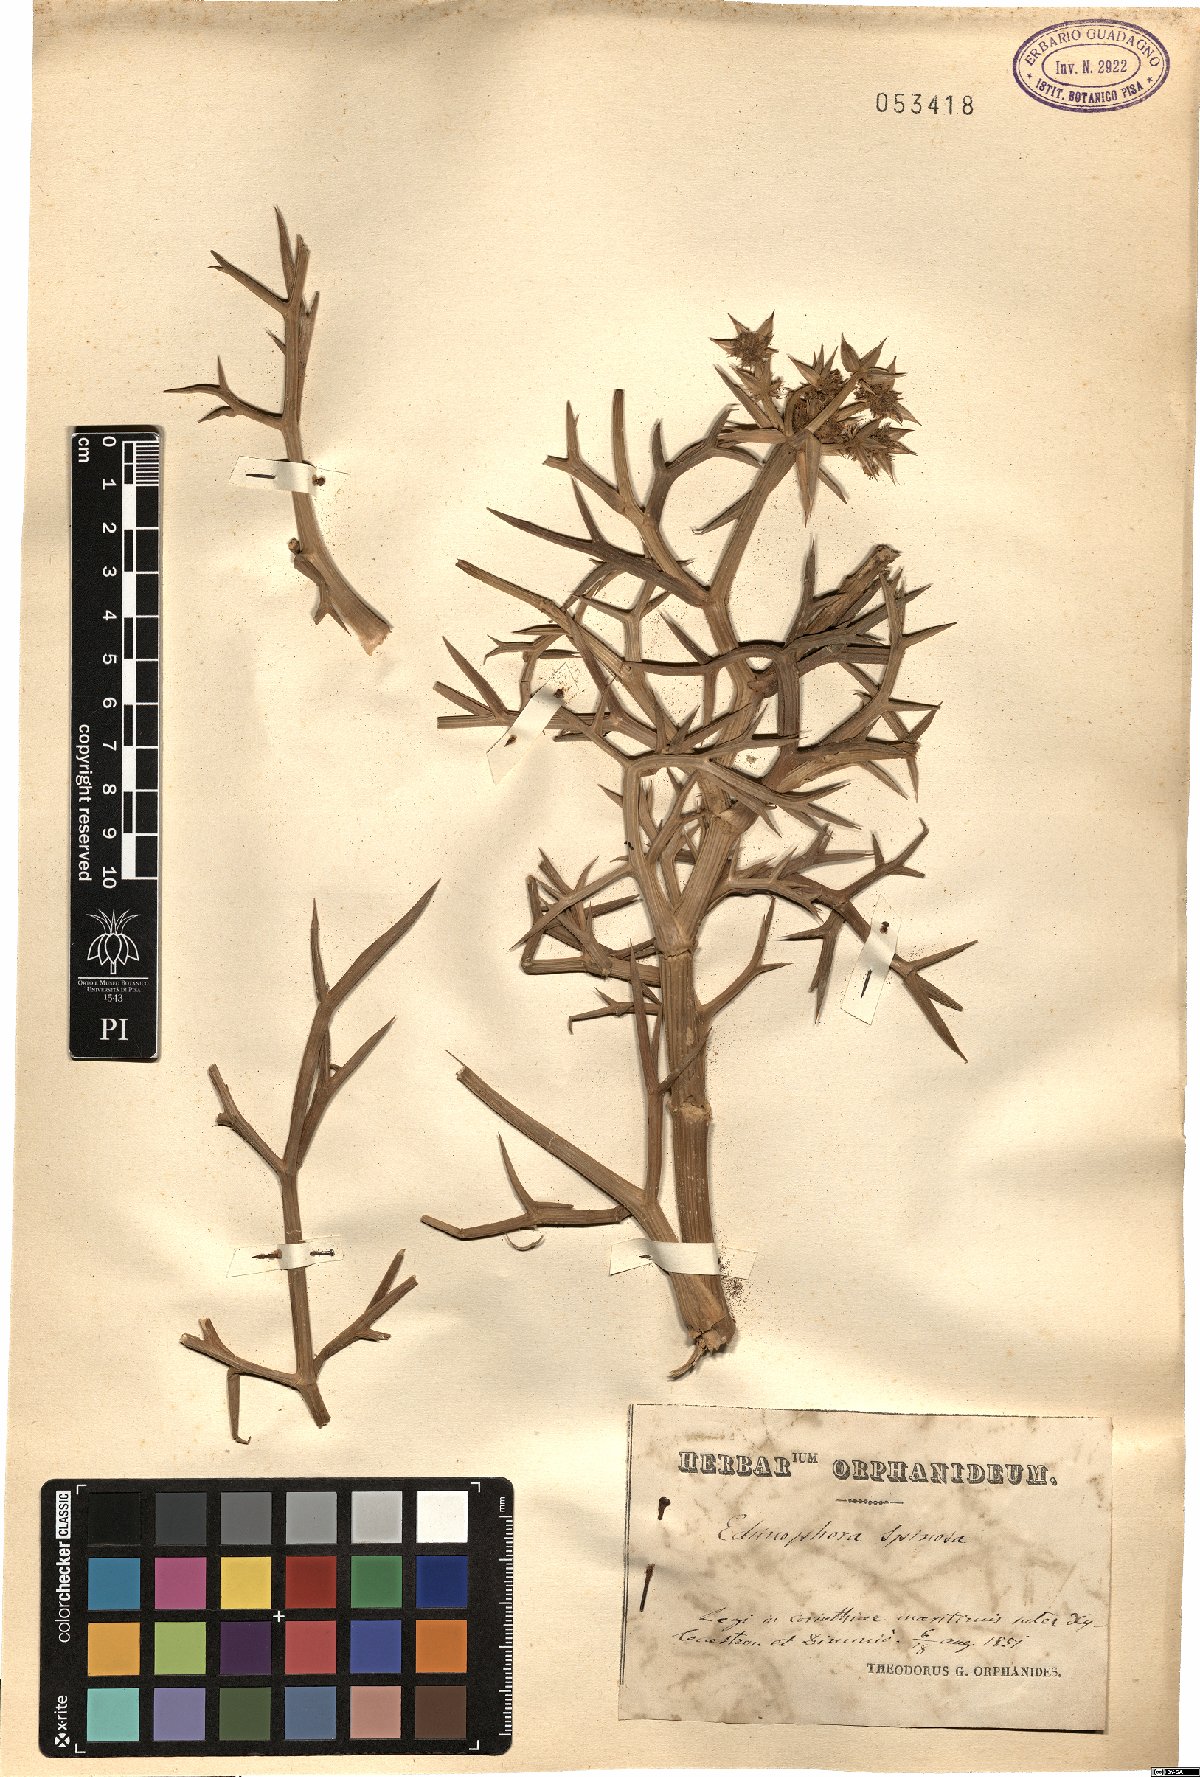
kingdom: Plantae
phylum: Tracheophyta
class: Magnoliopsida
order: Apiales
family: Apiaceae
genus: Echinophora
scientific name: Echinophora spinosa
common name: Prickly samphire
